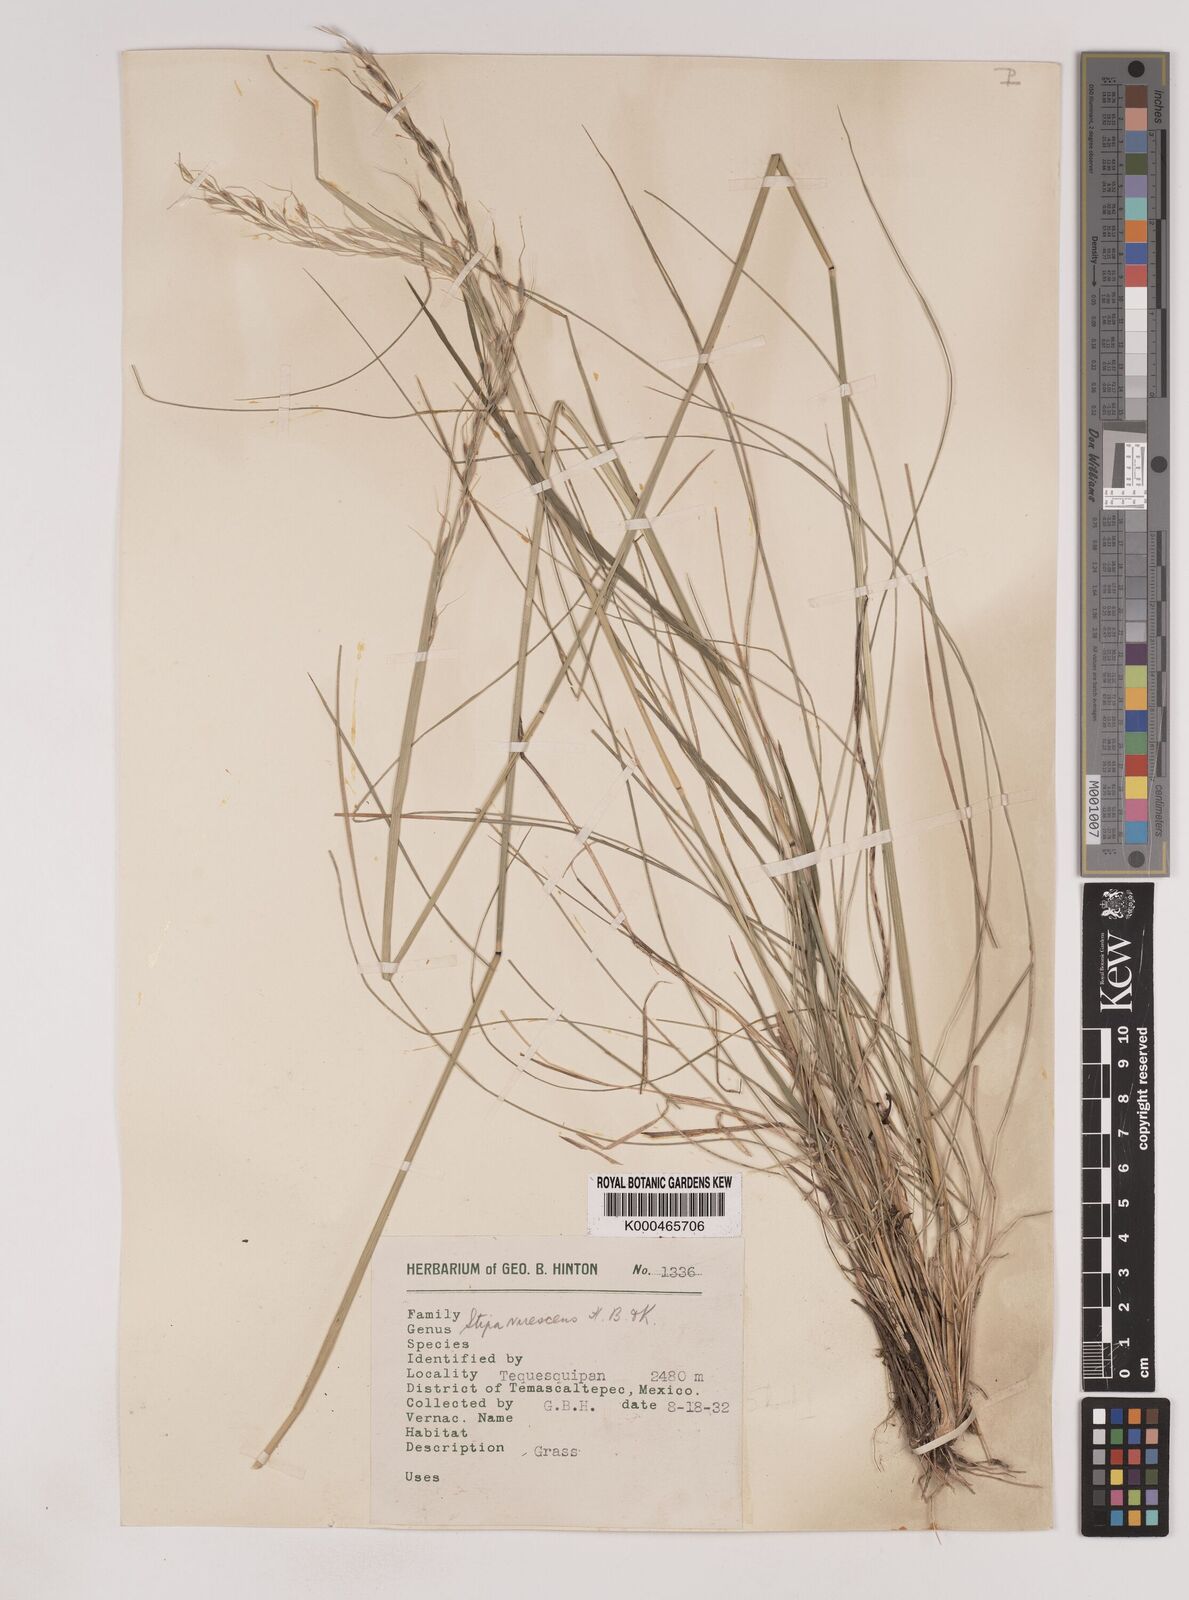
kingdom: Plantae
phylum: Tracheophyta
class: Liliopsida
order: Poales
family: Poaceae
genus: Piptochaetium
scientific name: Piptochaetium virescens
